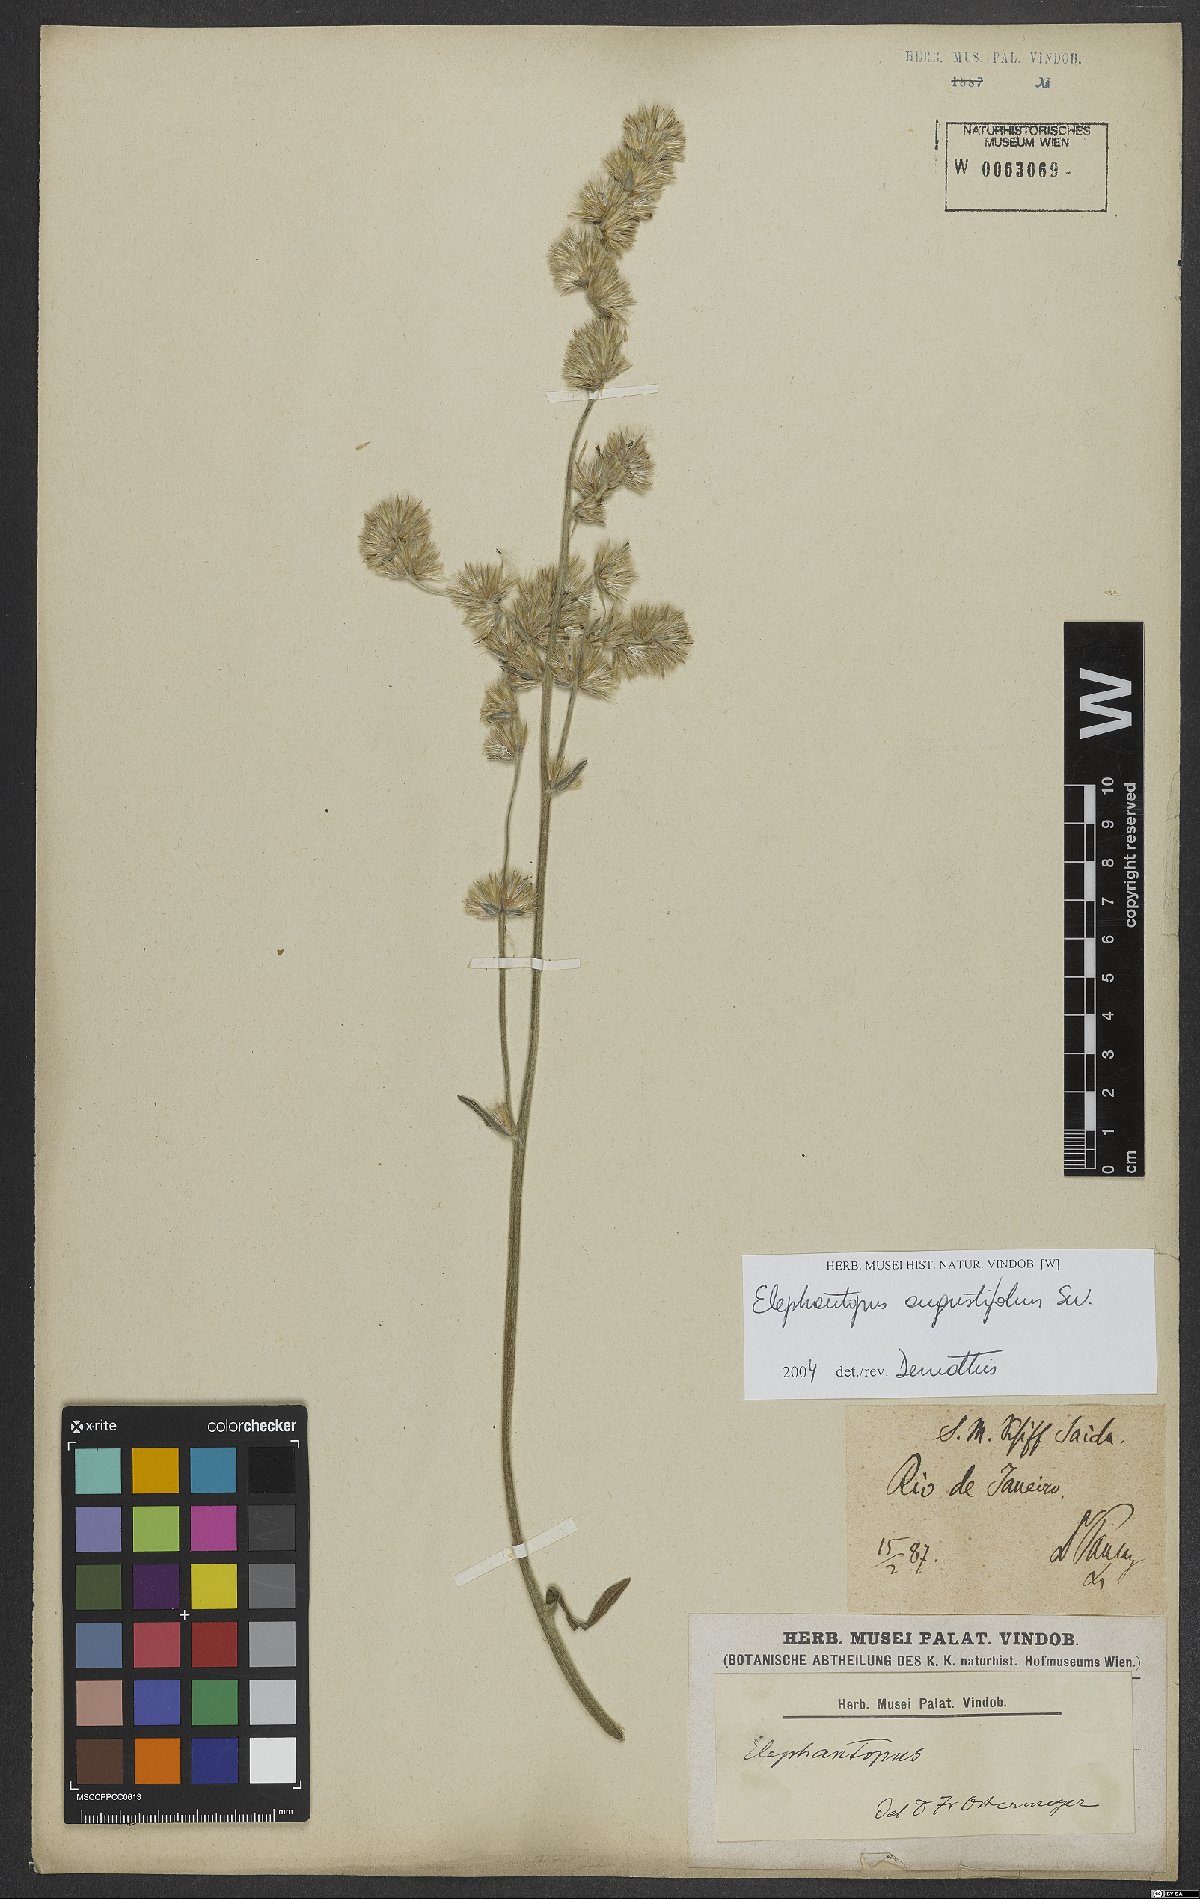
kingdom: Plantae
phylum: Tracheophyta
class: Magnoliopsida
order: Asterales
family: Asteraceae
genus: Orthopappus
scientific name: Orthopappus angustifolius
